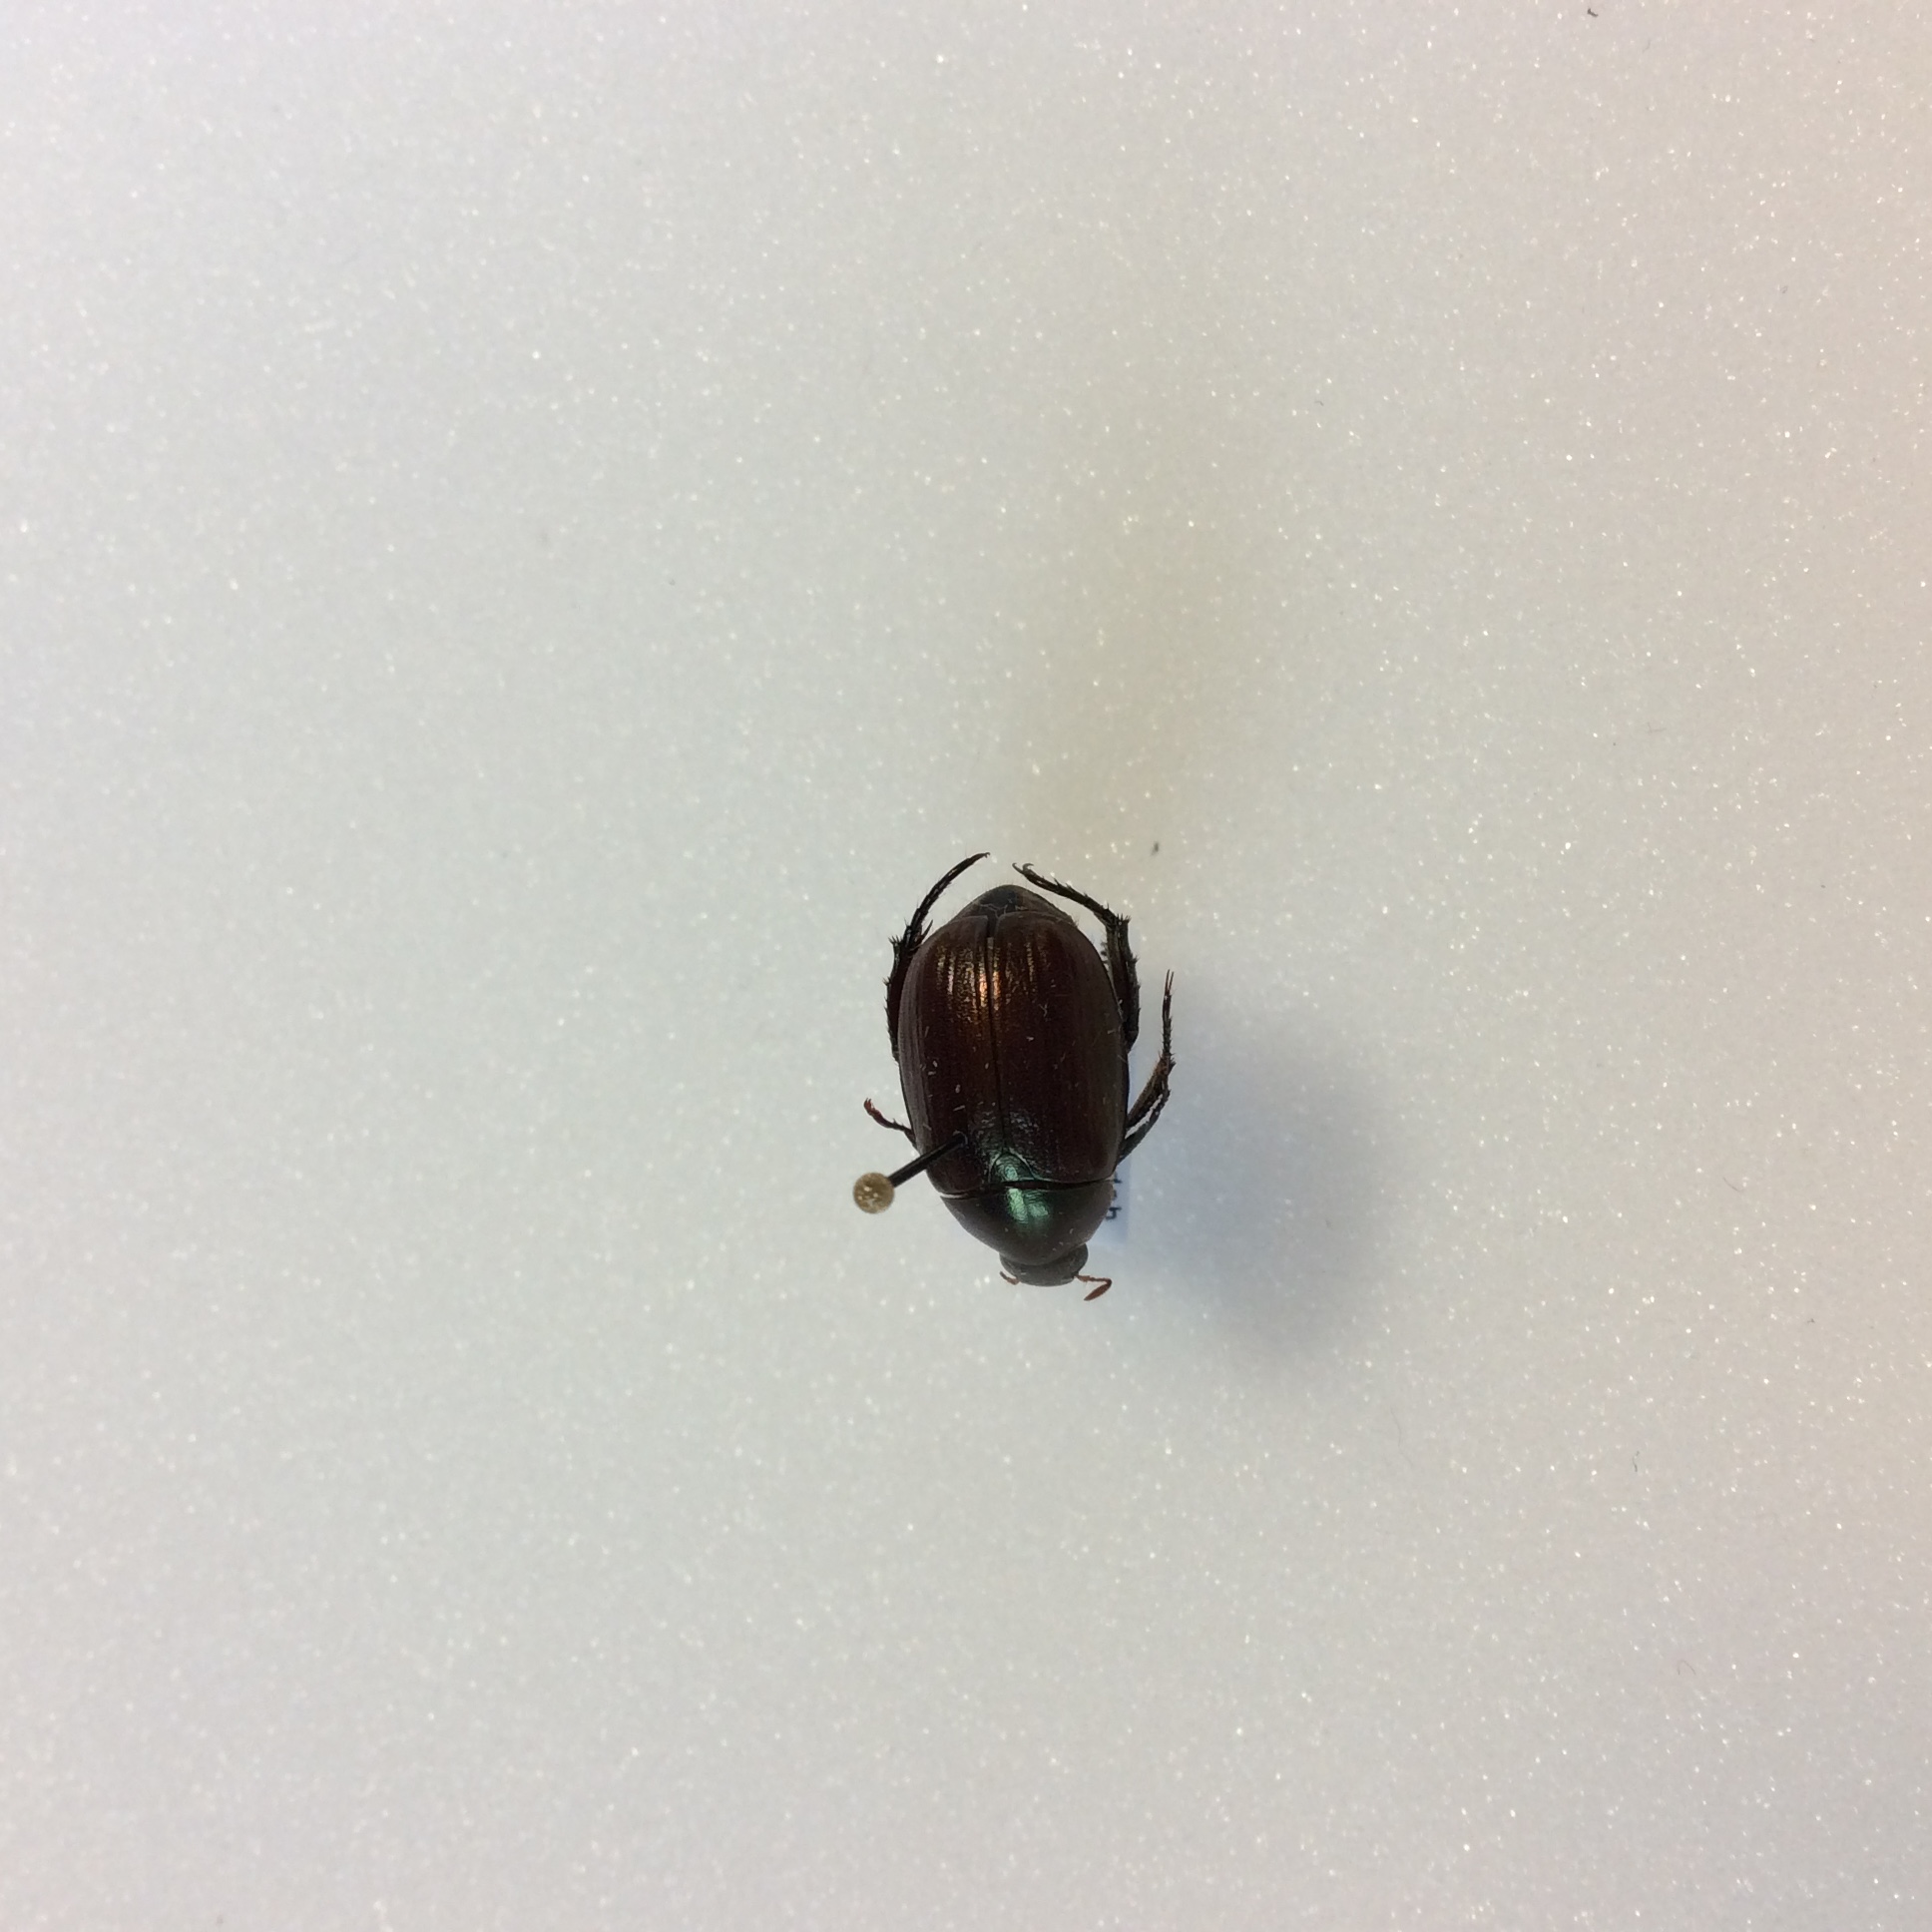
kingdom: Animalia
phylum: Arthropoda
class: Insecta
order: Coleoptera
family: Scarabaeidae
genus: Anomala
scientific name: Anomala
